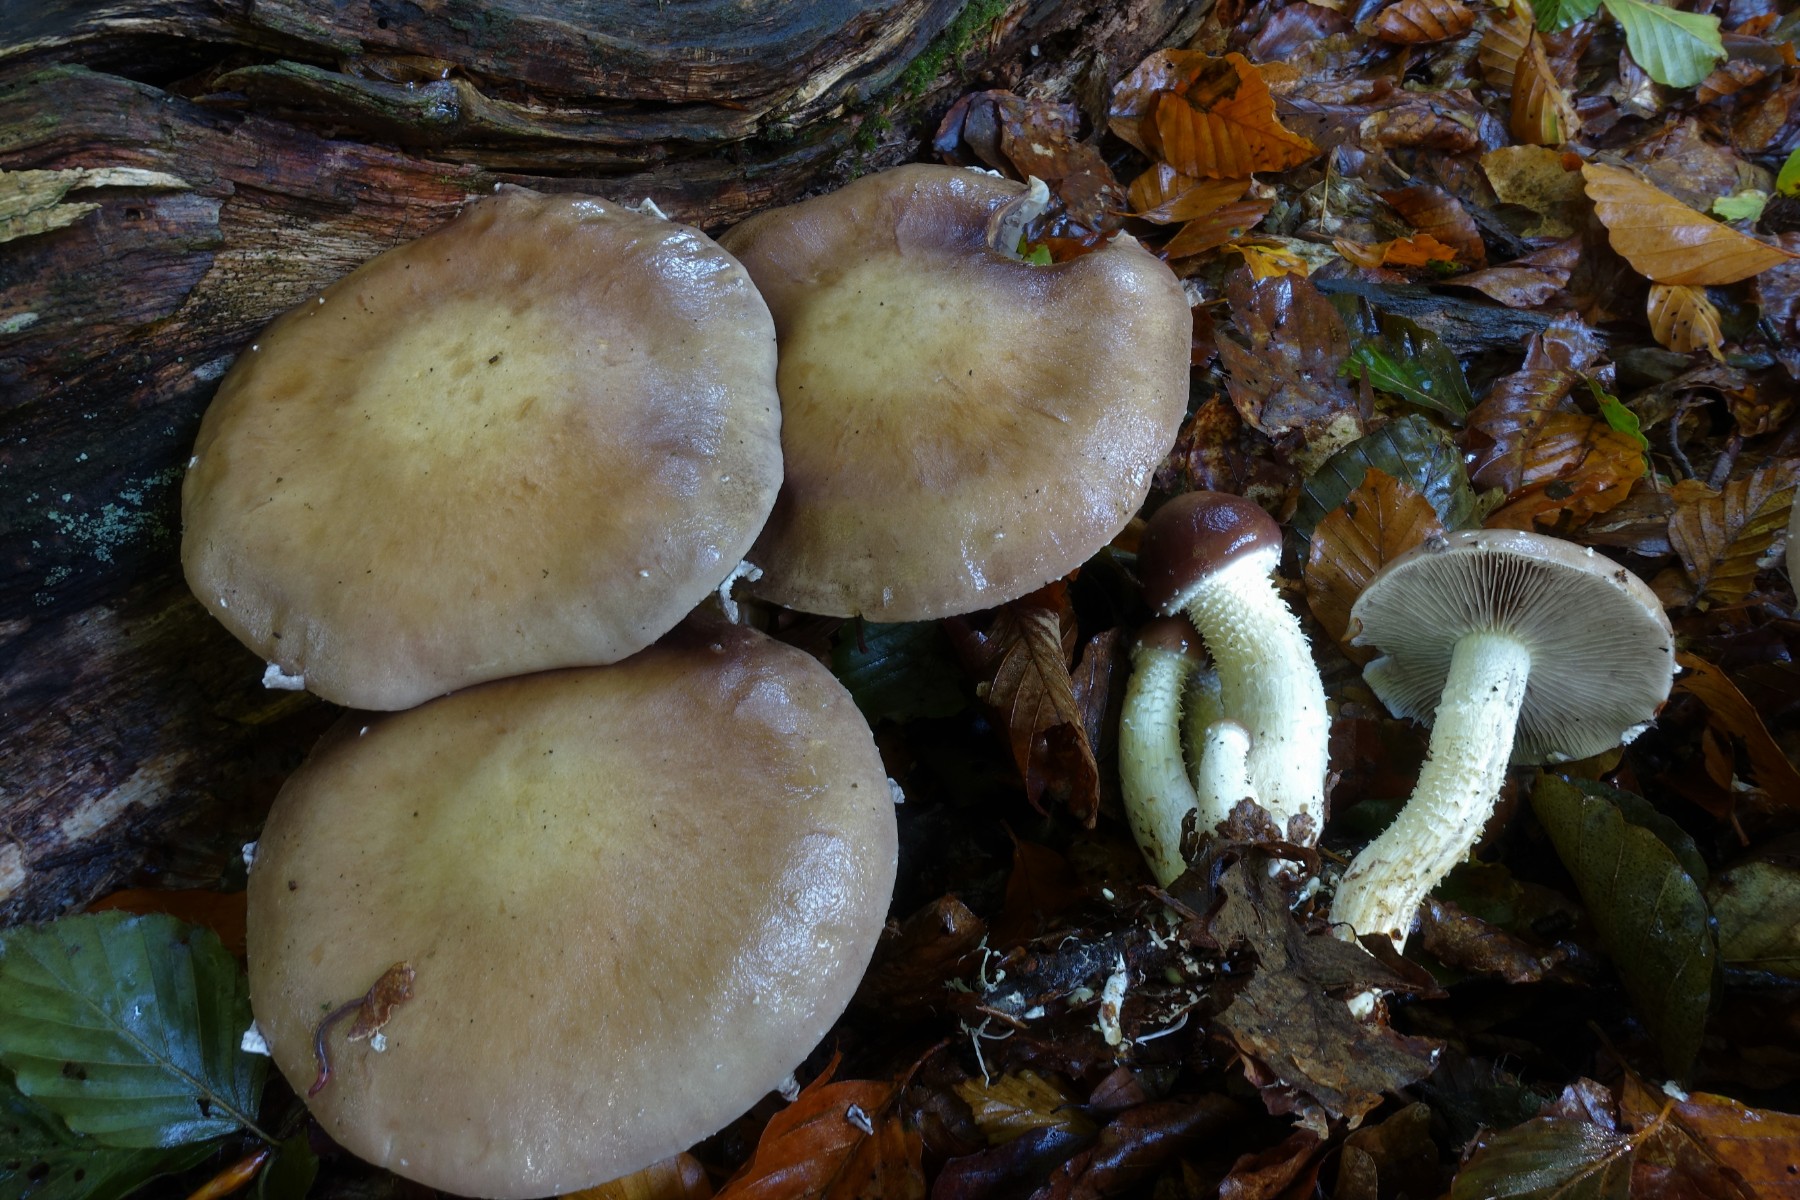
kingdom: Fungi
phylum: Basidiomycota
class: Agaricomycetes
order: Agaricales
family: Strophariaceae
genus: Stropharia
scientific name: Stropharia hornemannii
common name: nordisk bredblad
